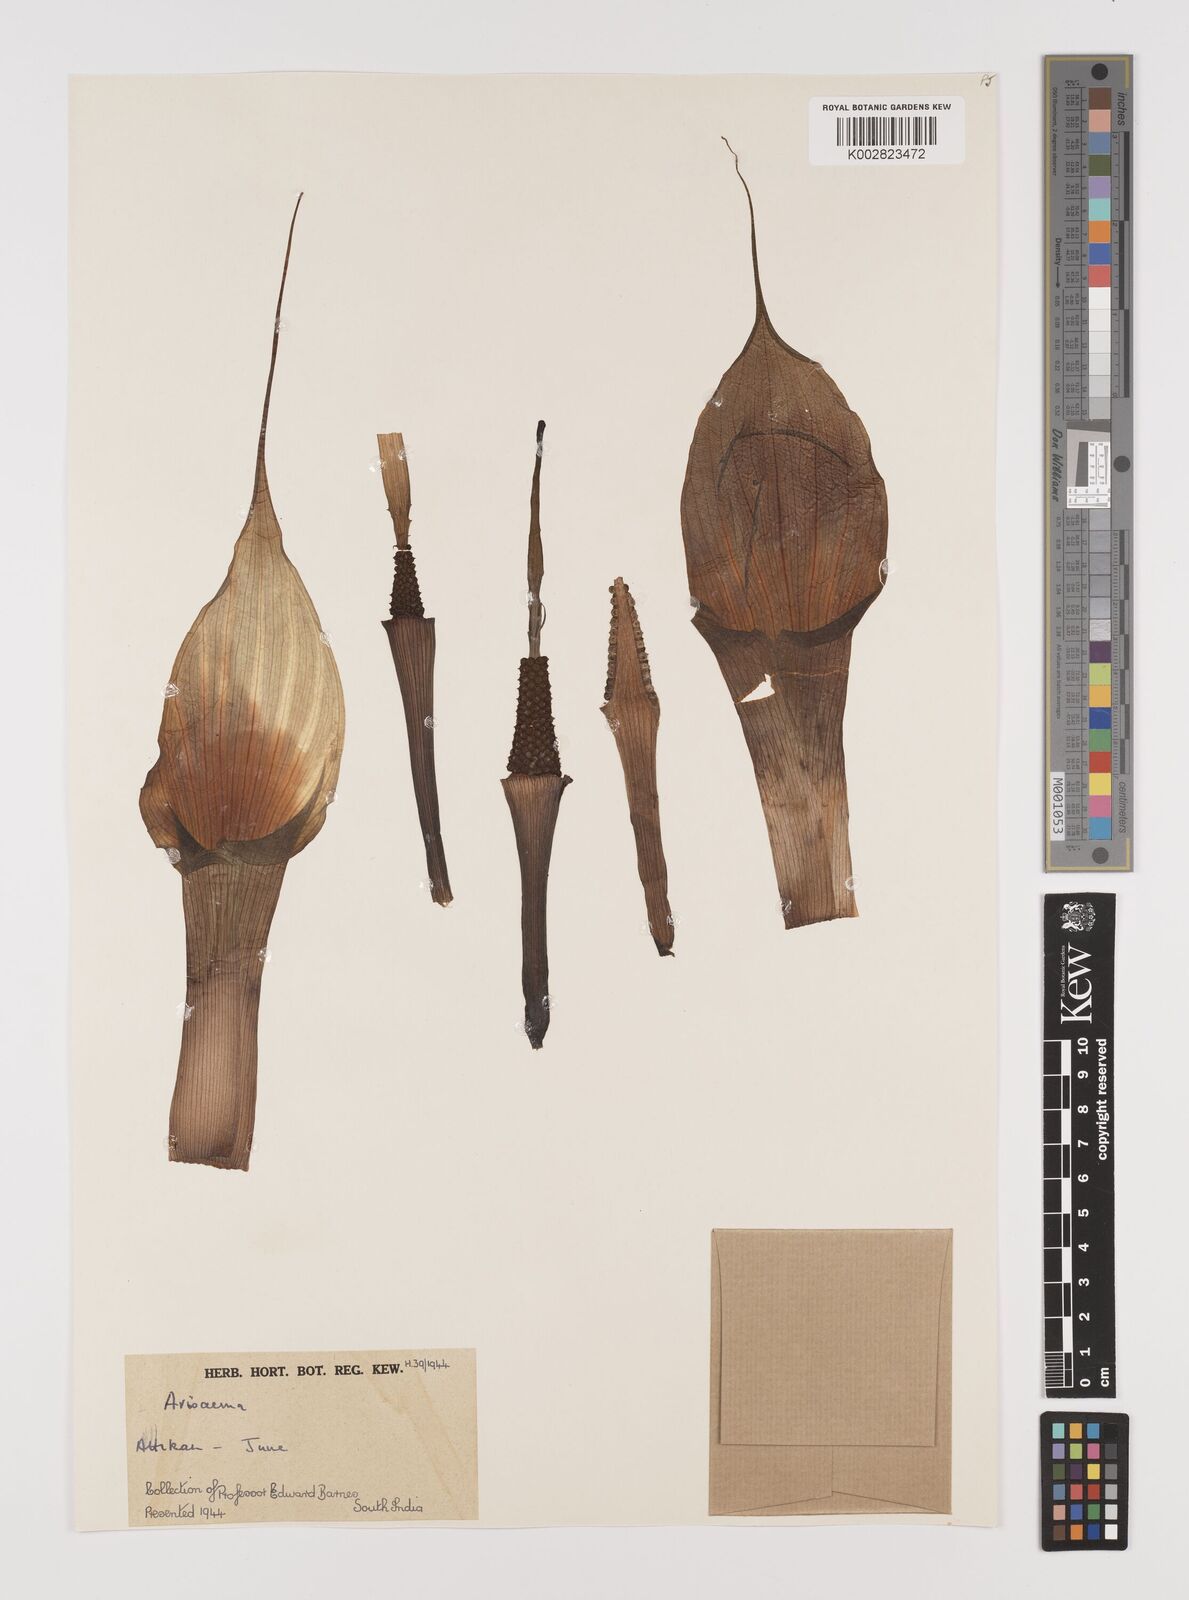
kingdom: Plantae
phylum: Tracheophyta
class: Liliopsida
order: Alismatales
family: Araceae
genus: Arisaema
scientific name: Arisaema
